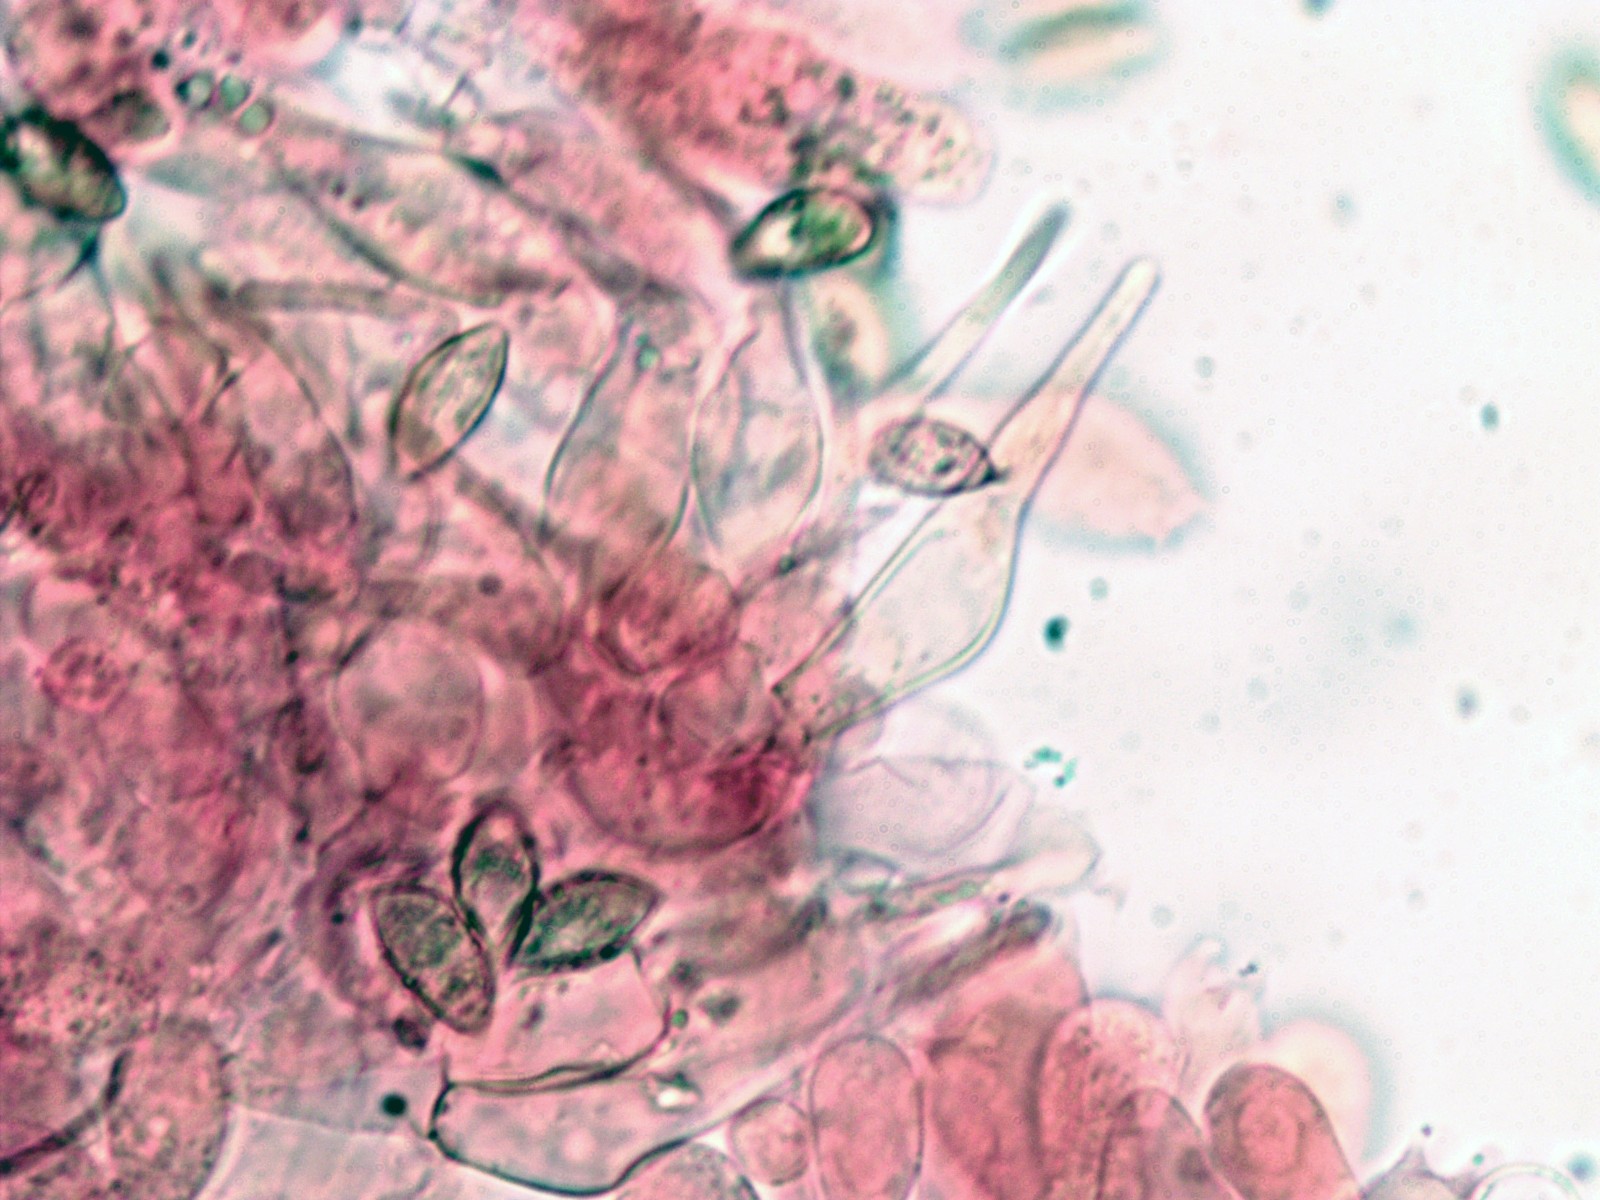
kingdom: Fungi
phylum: Basidiomycota
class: Agaricomycetes
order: Agaricales
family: Hymenogastraceae
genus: Naucoria
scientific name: Naucoria
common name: knaphat
